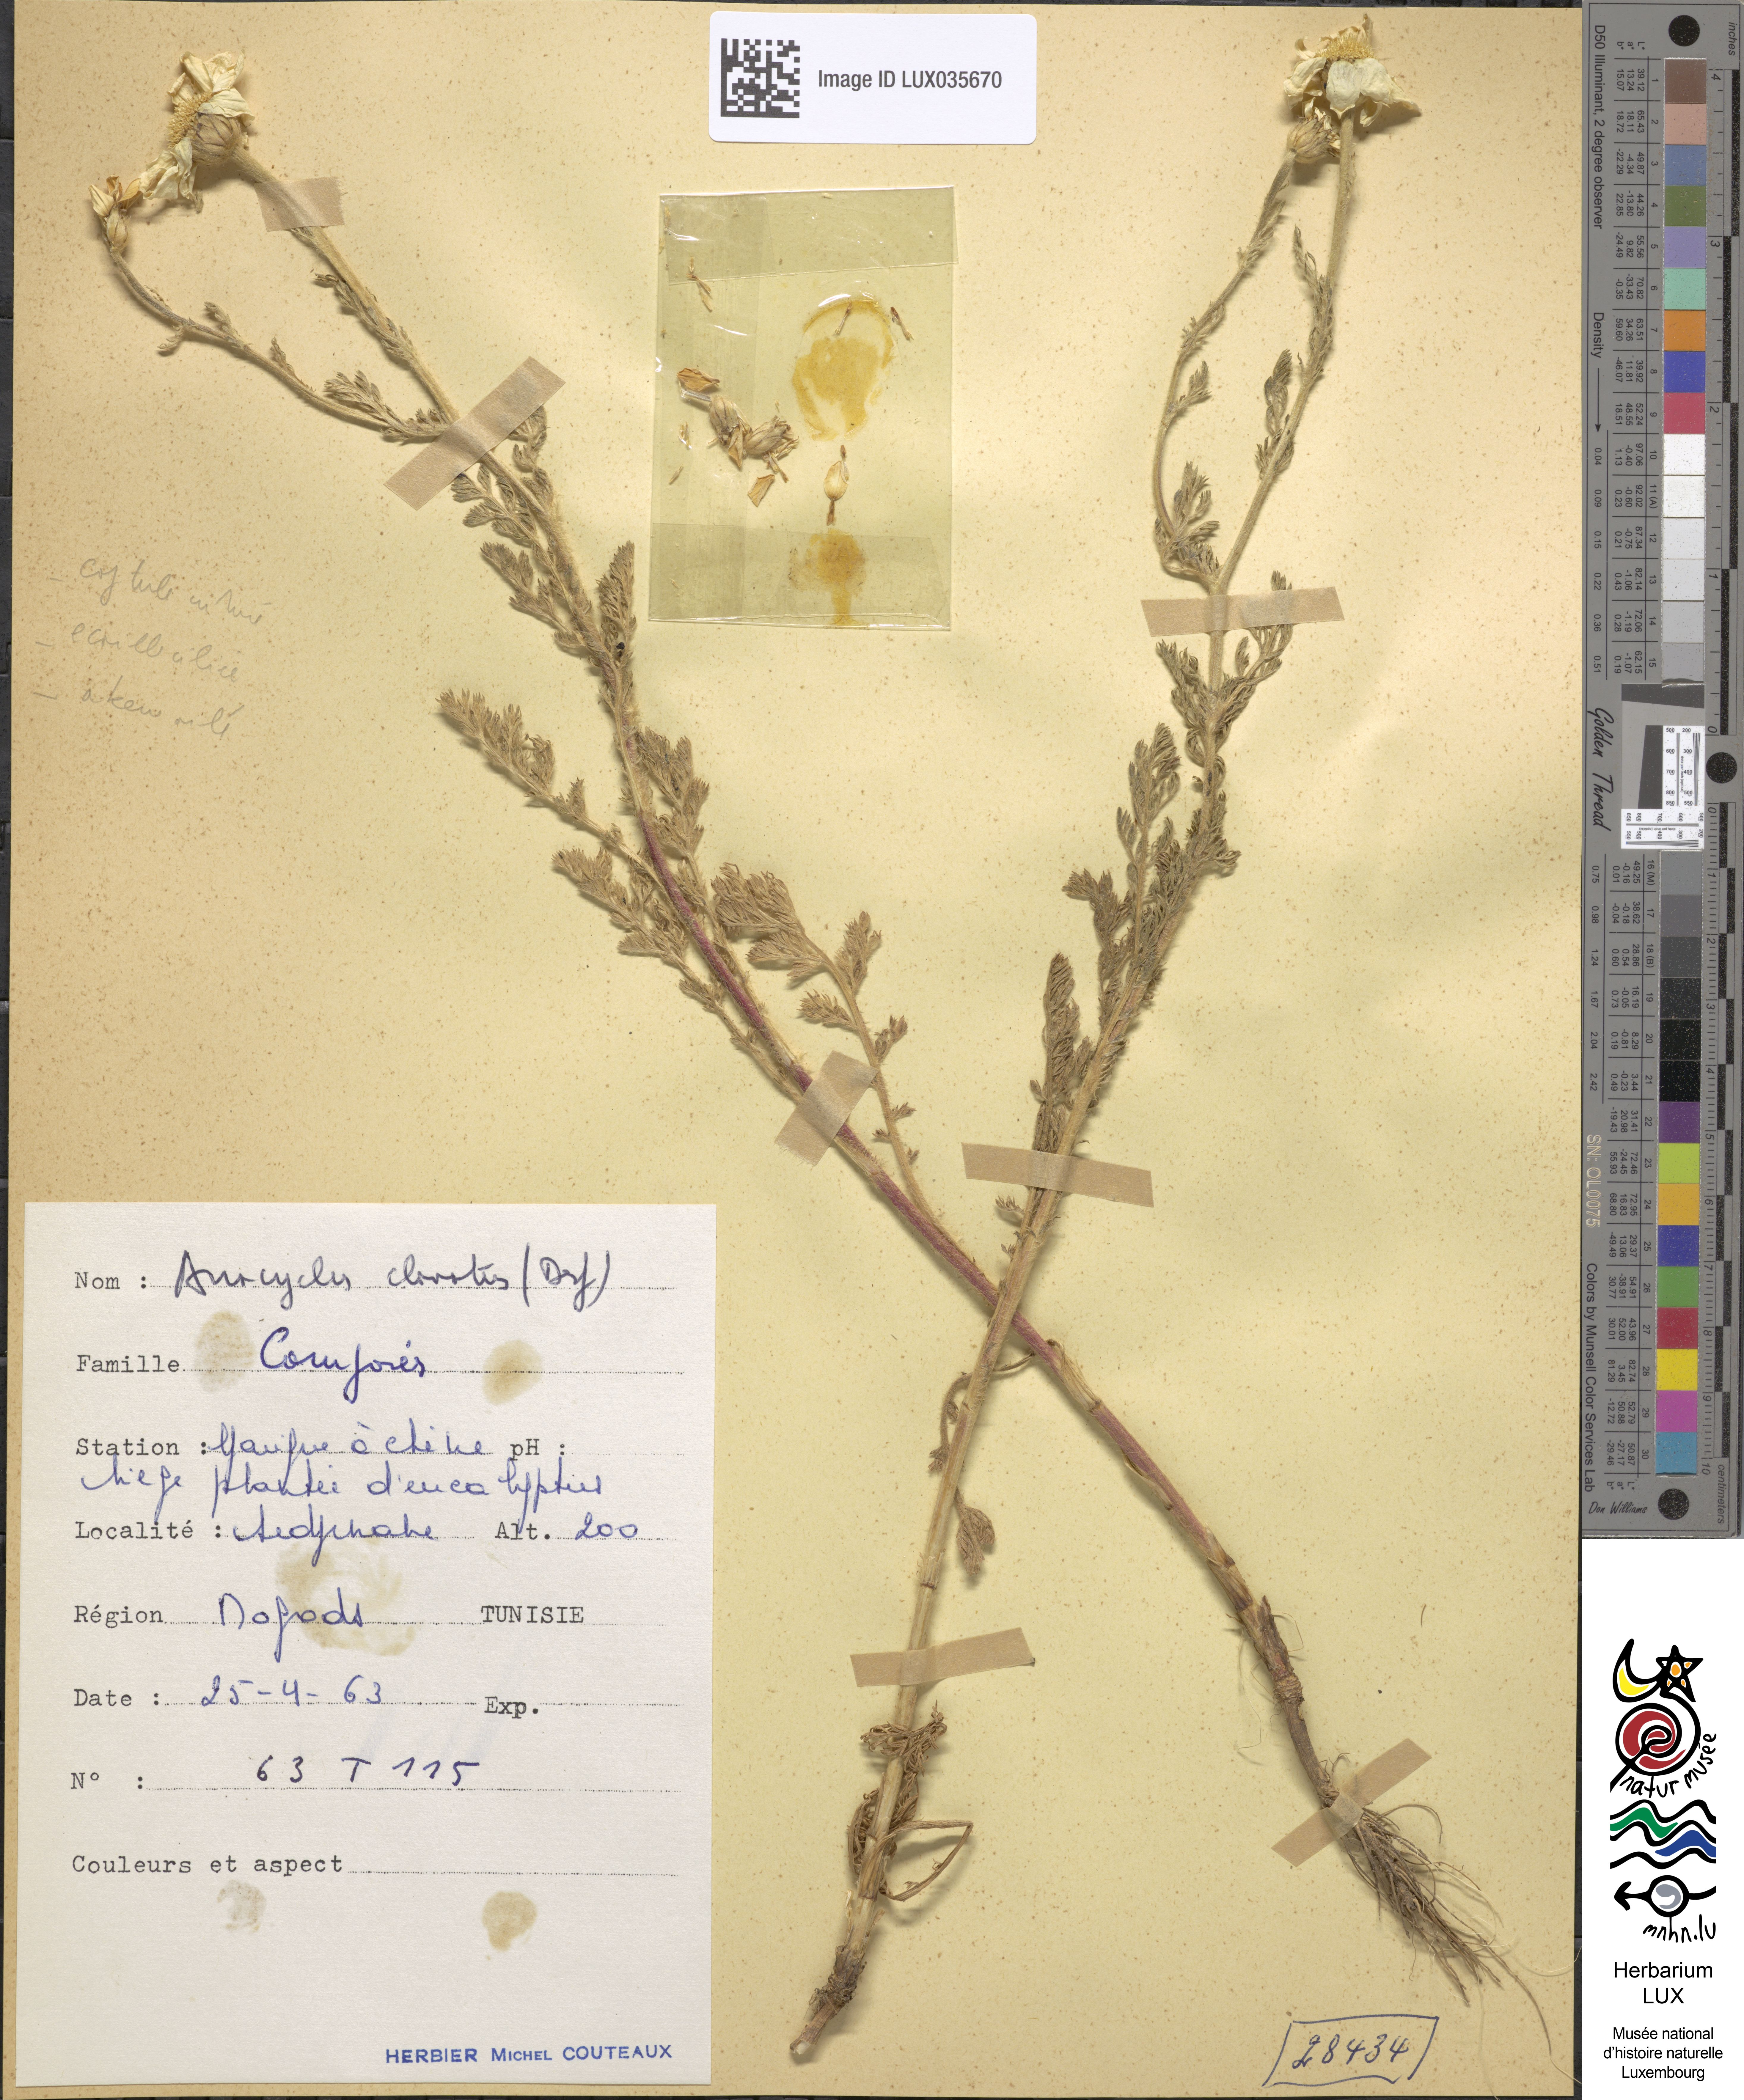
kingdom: Plantae
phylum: Tracheophyta
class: Magnoliopsida
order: Asterales
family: Asteraceae
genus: Anacyclus
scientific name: Anacyclus clavatus
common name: Whitebuttons
